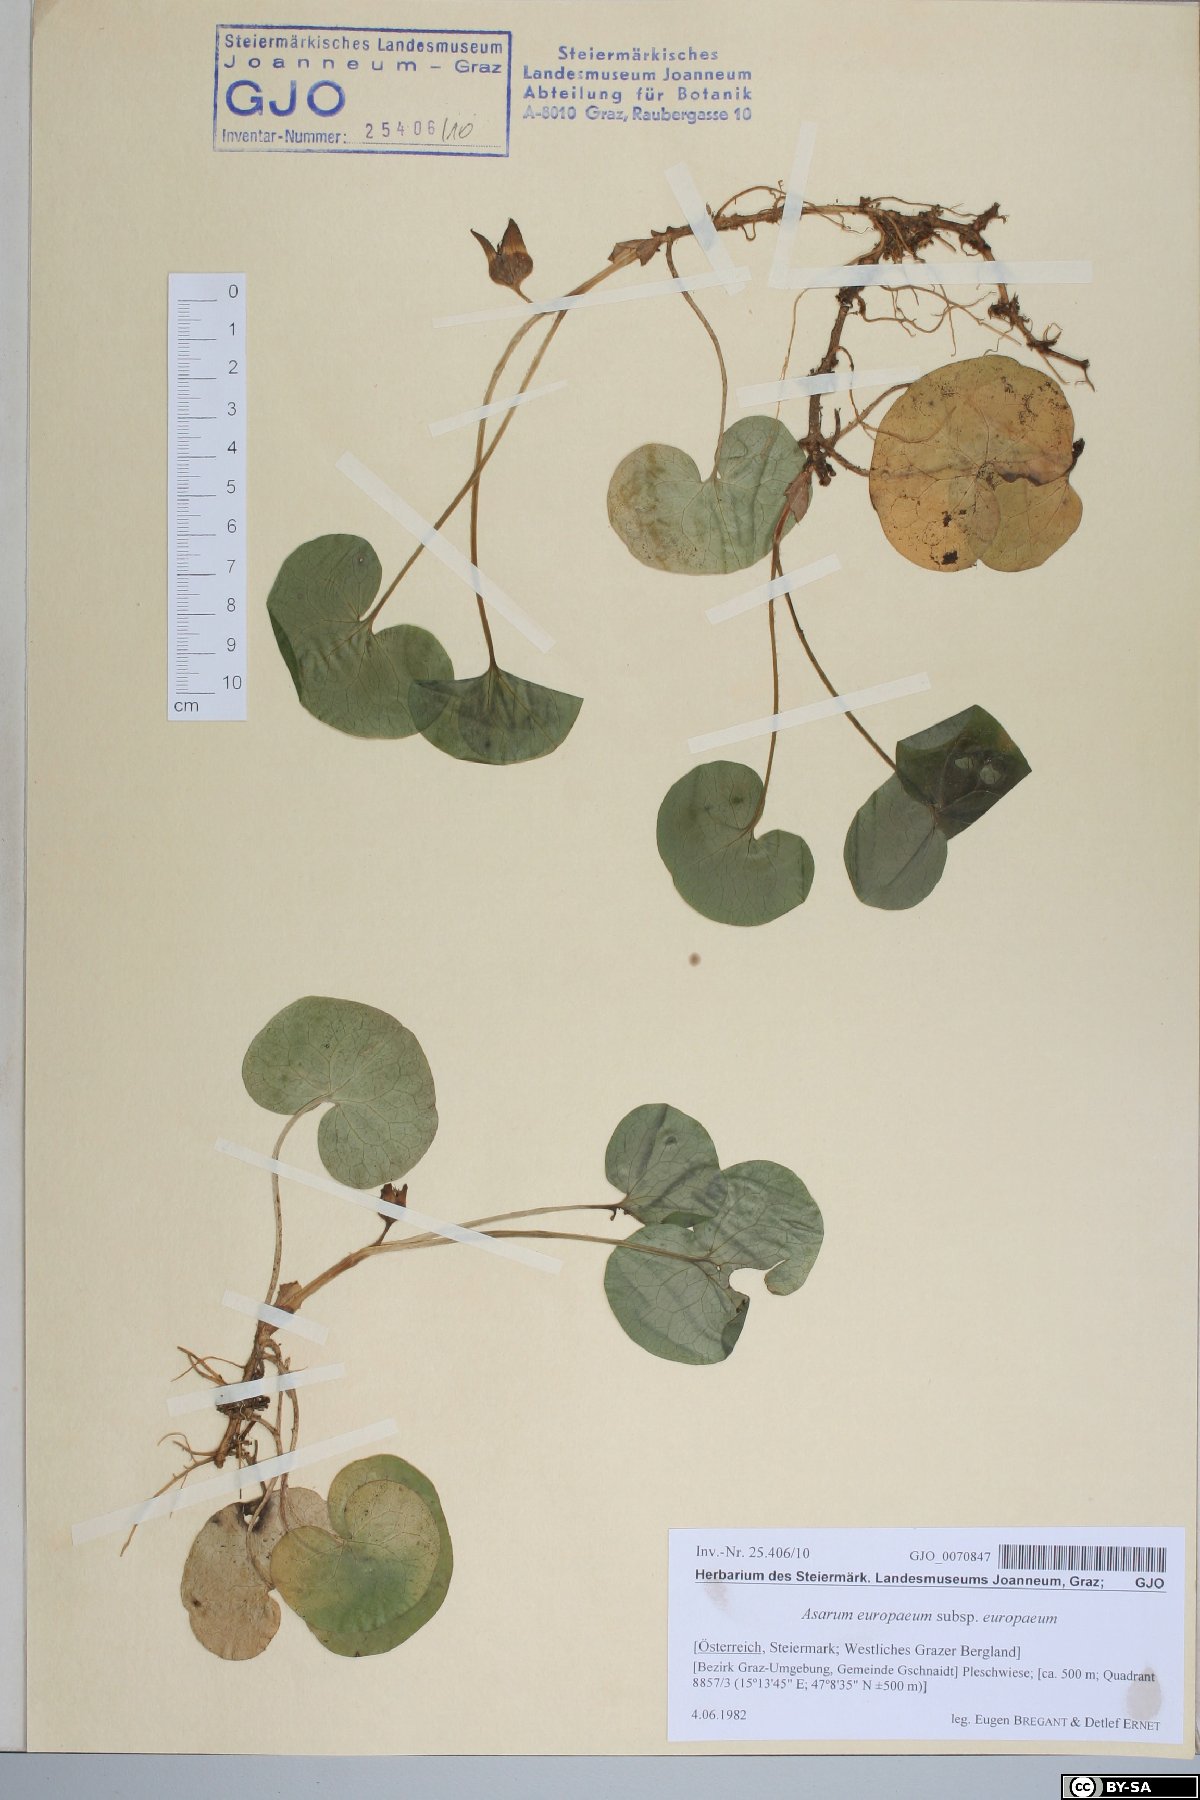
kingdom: Plantae
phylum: Tracheophyta
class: Magnoliopsida
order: Piperales
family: Aristolochiaceae
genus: Asarum
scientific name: Asarum europaeum
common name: Asarabacca
